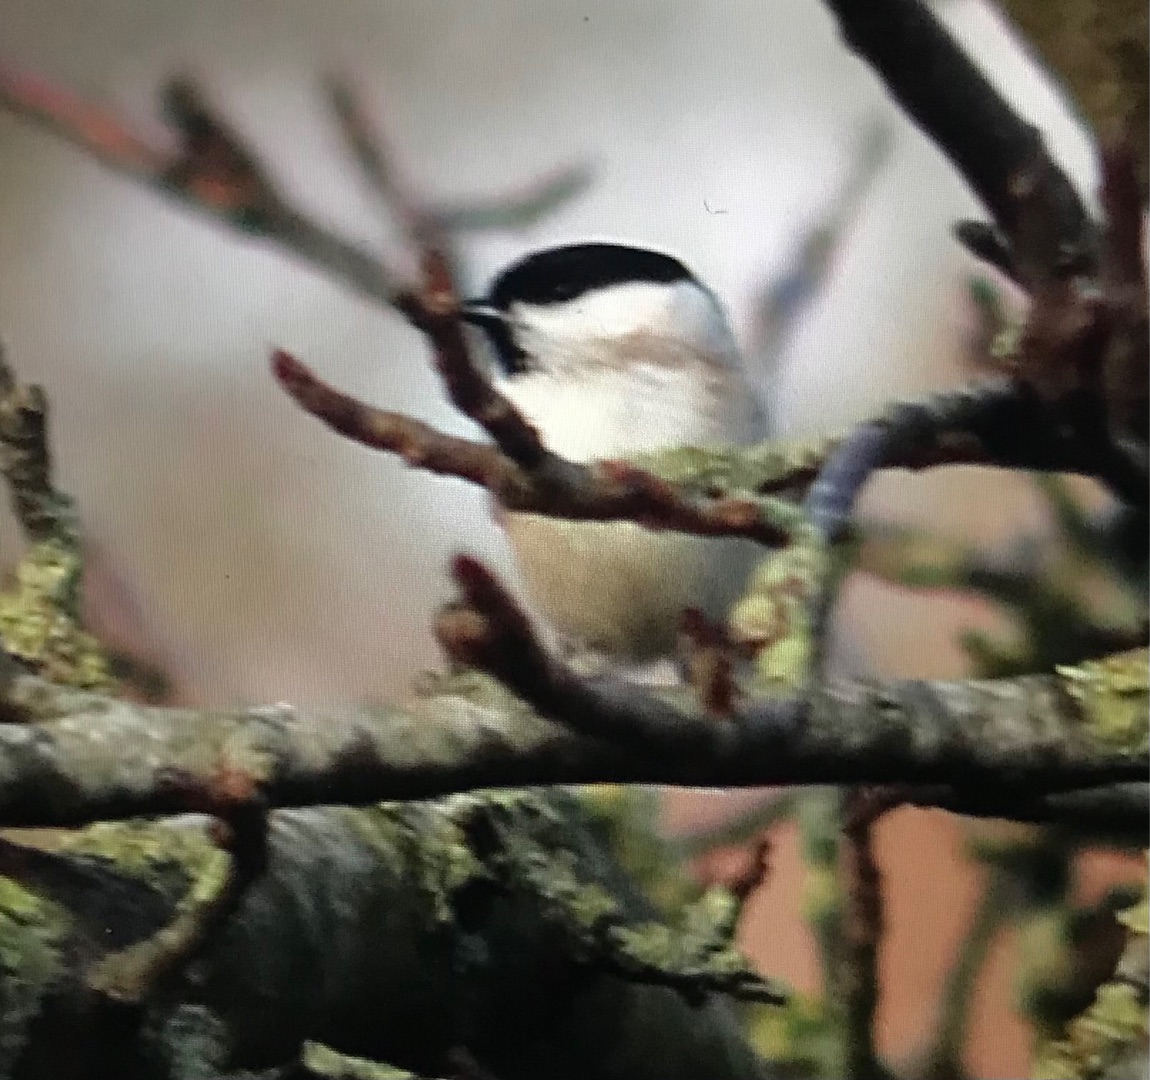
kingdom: Animalia
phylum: Chordata
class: Aves
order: Passeriformes
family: Paridae
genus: Poecile
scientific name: Poecile palustris
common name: Sumpmejse
